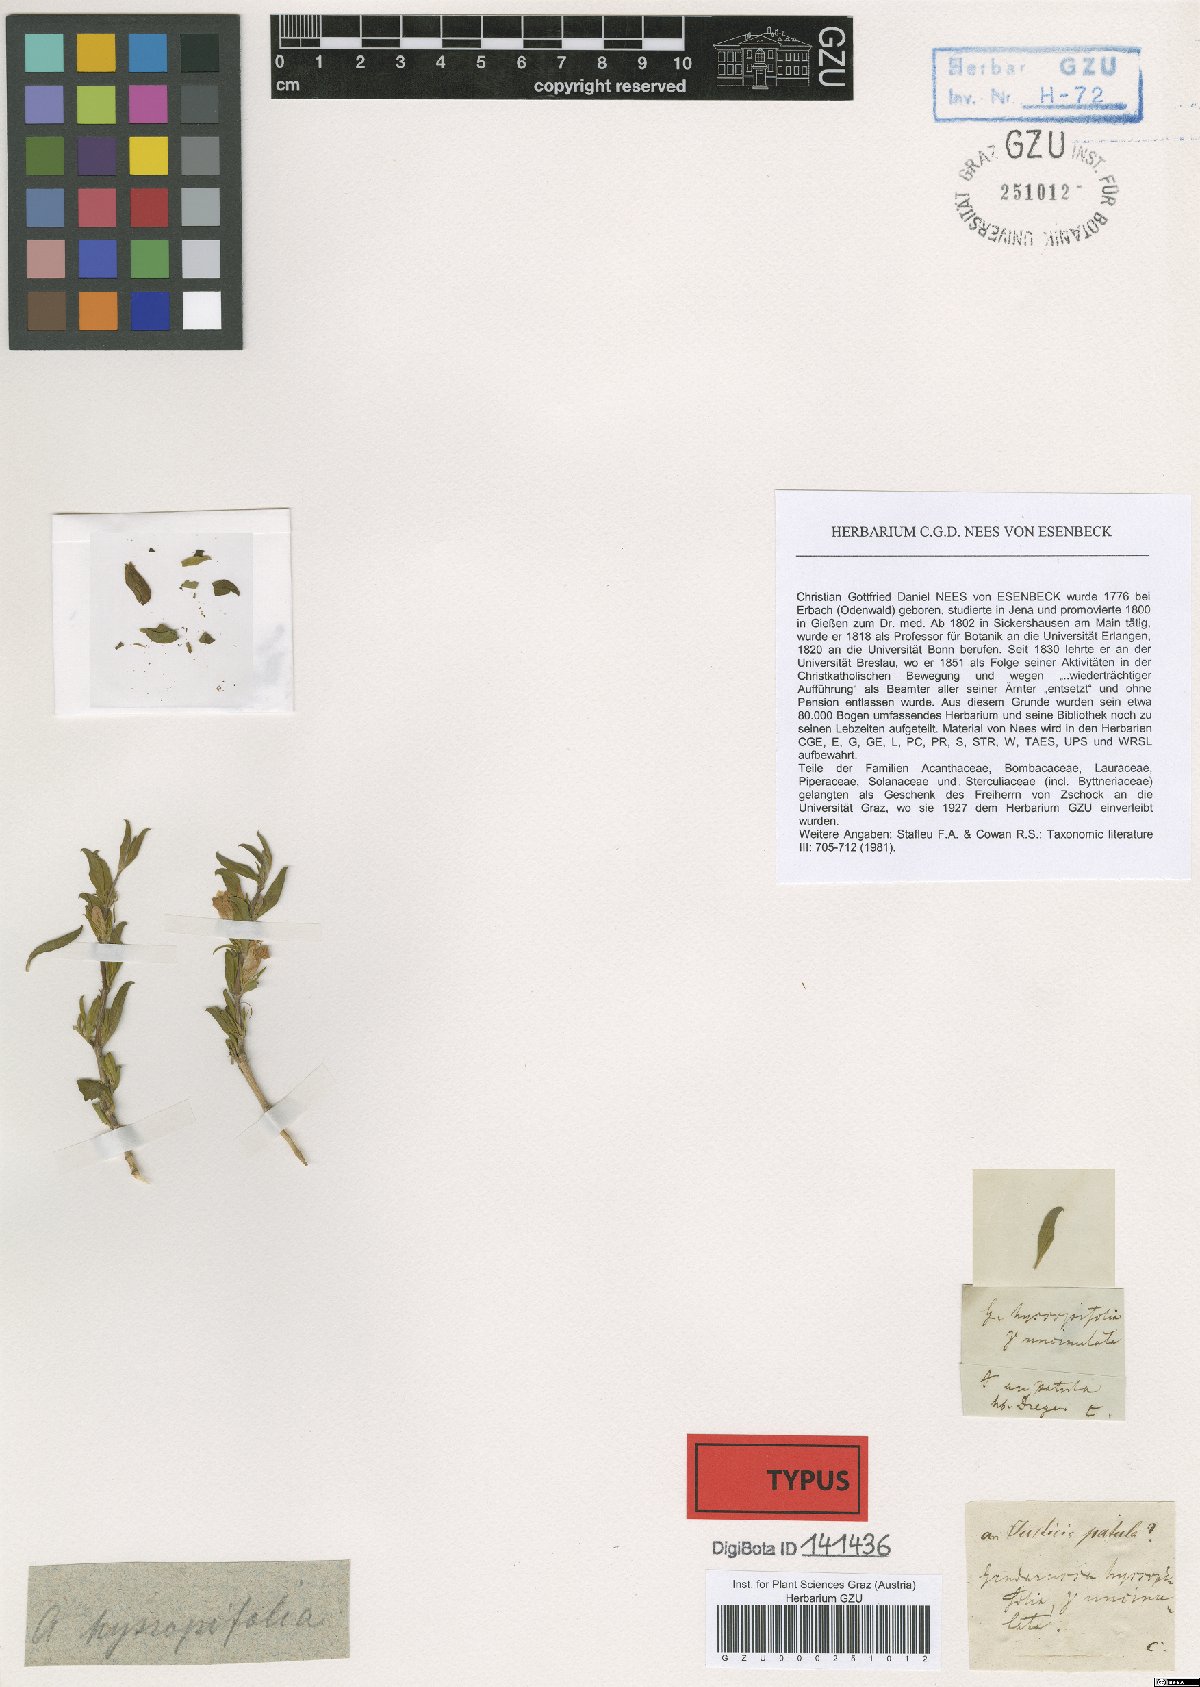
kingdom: Plantae
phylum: Tracheophyta
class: Magnoliopsida
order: Lamiales
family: Acanthaceae
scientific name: Acanthaceae
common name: Acanthaceae
